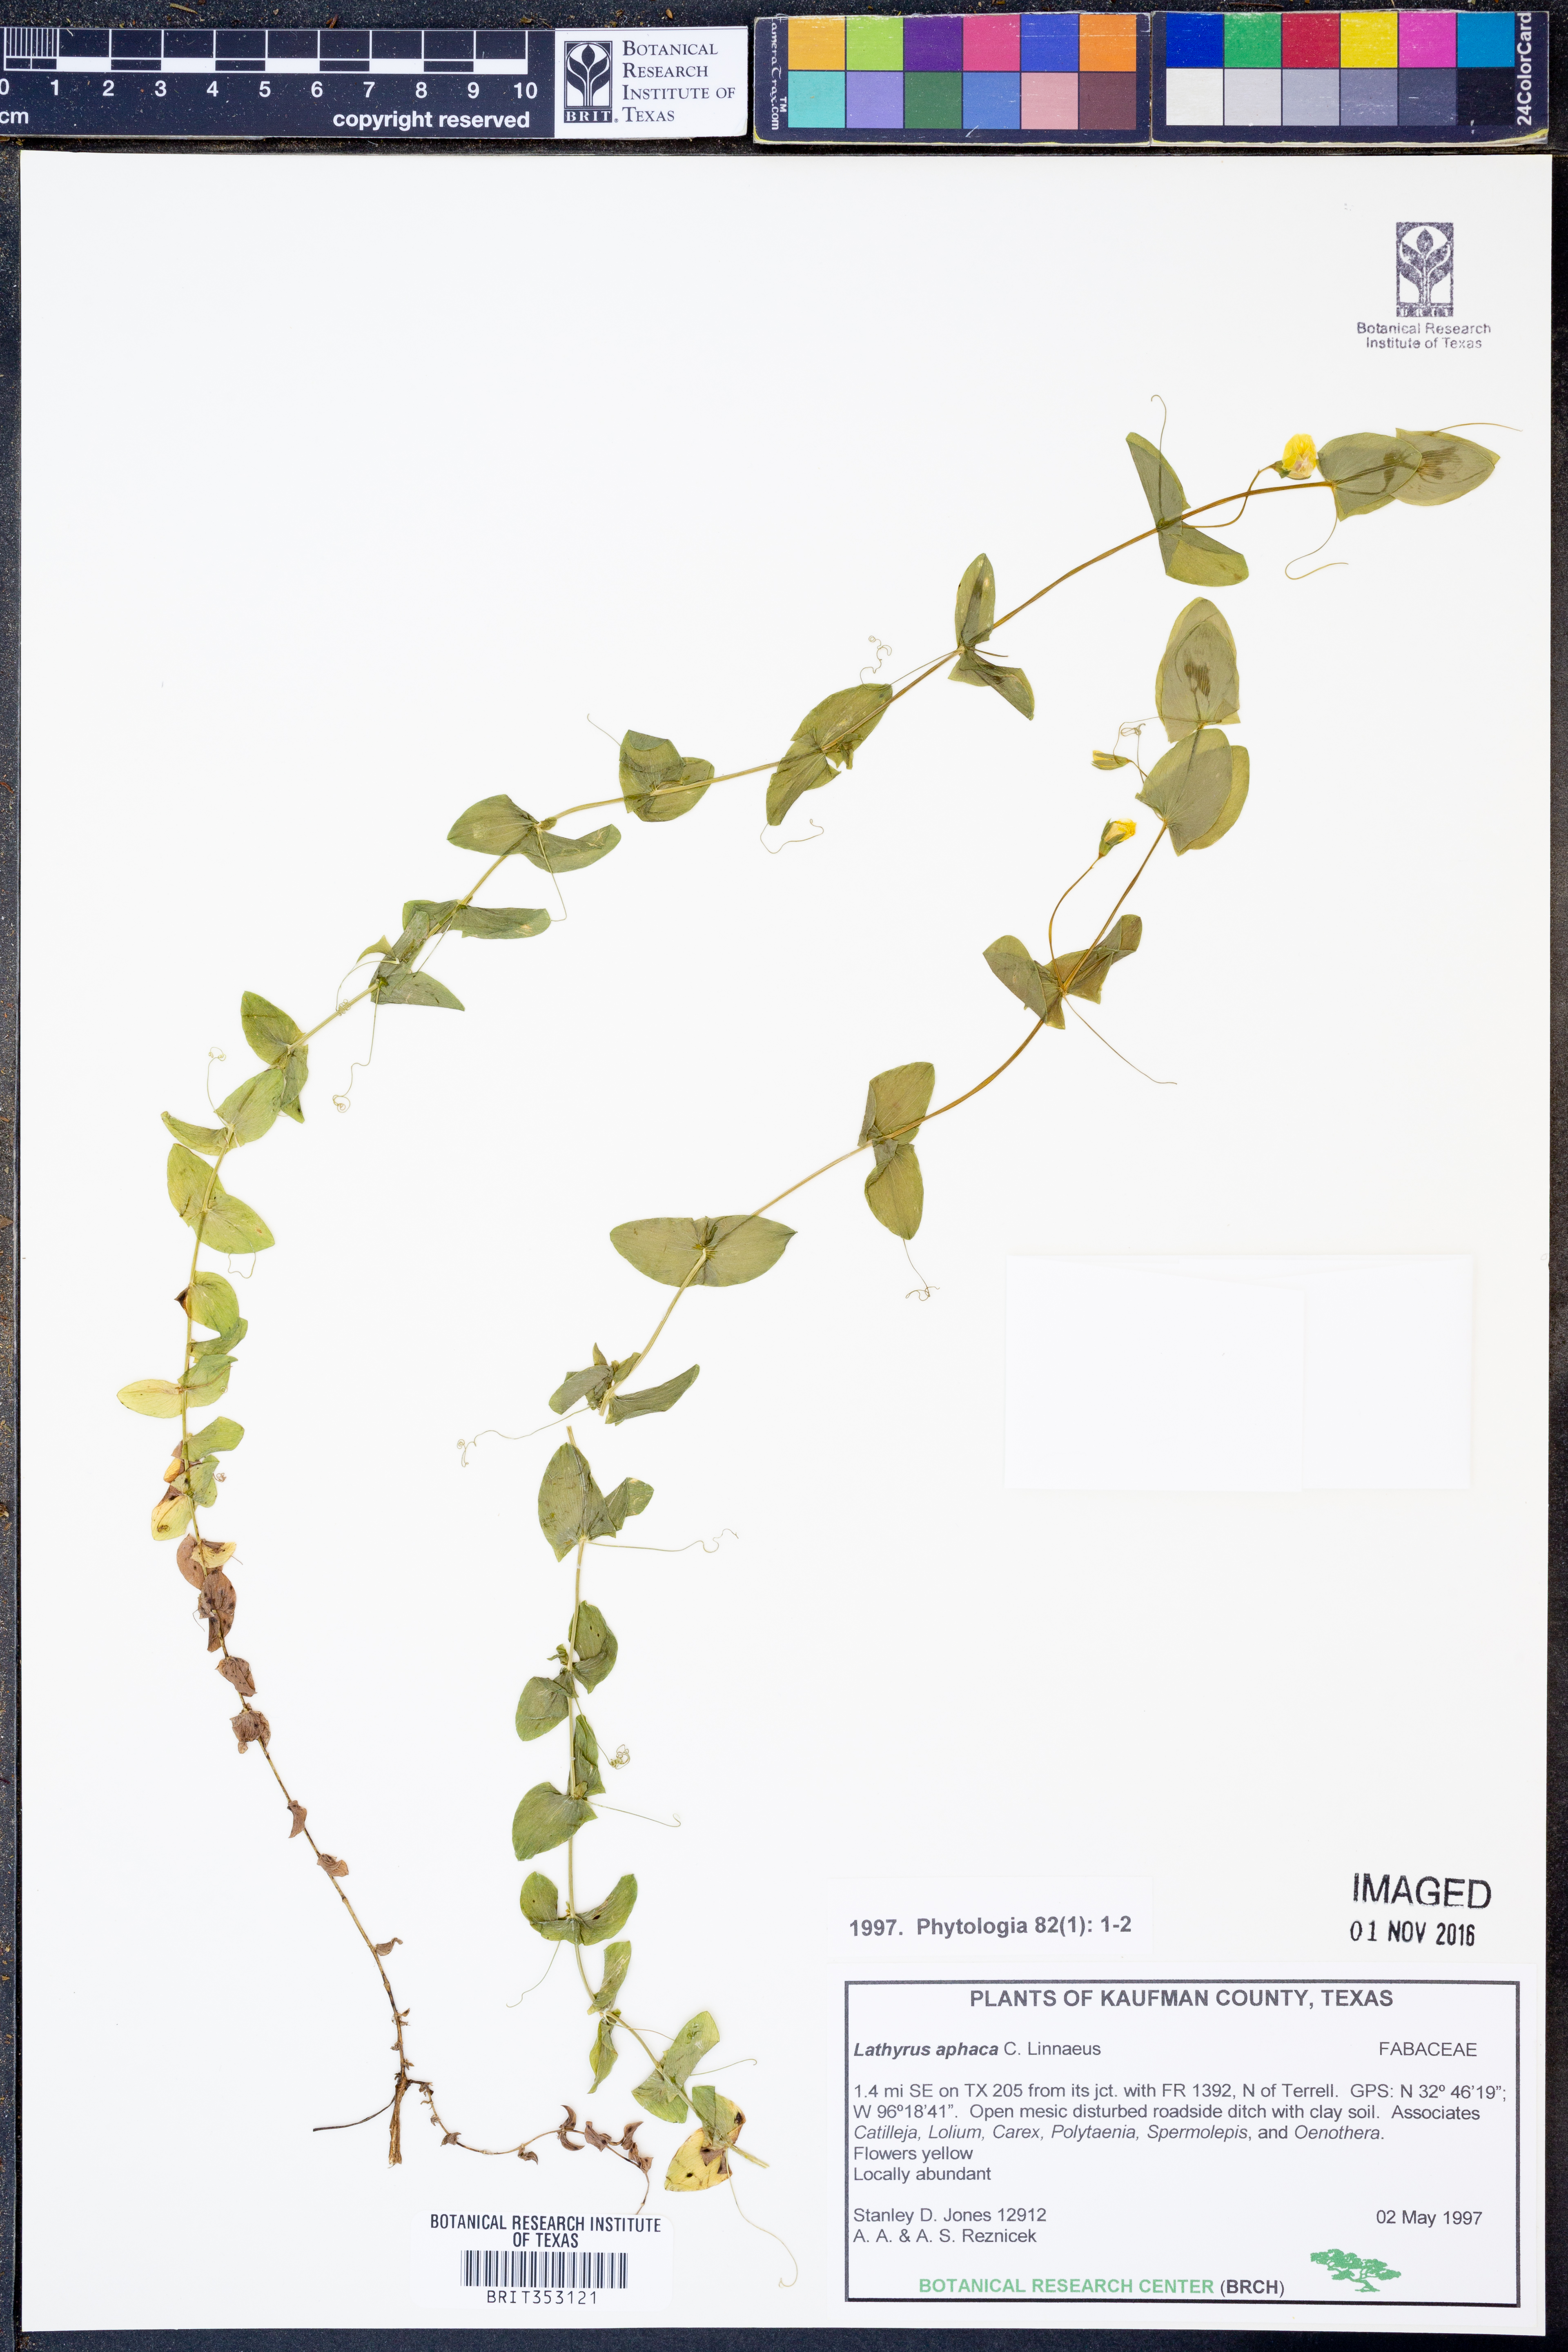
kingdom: Plantae
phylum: Tracheophyta
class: Magnoliopsida
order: Fabales
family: Fabaceae
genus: Lathyrus
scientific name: Lathyrus aphaca
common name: Yellow vetchling
